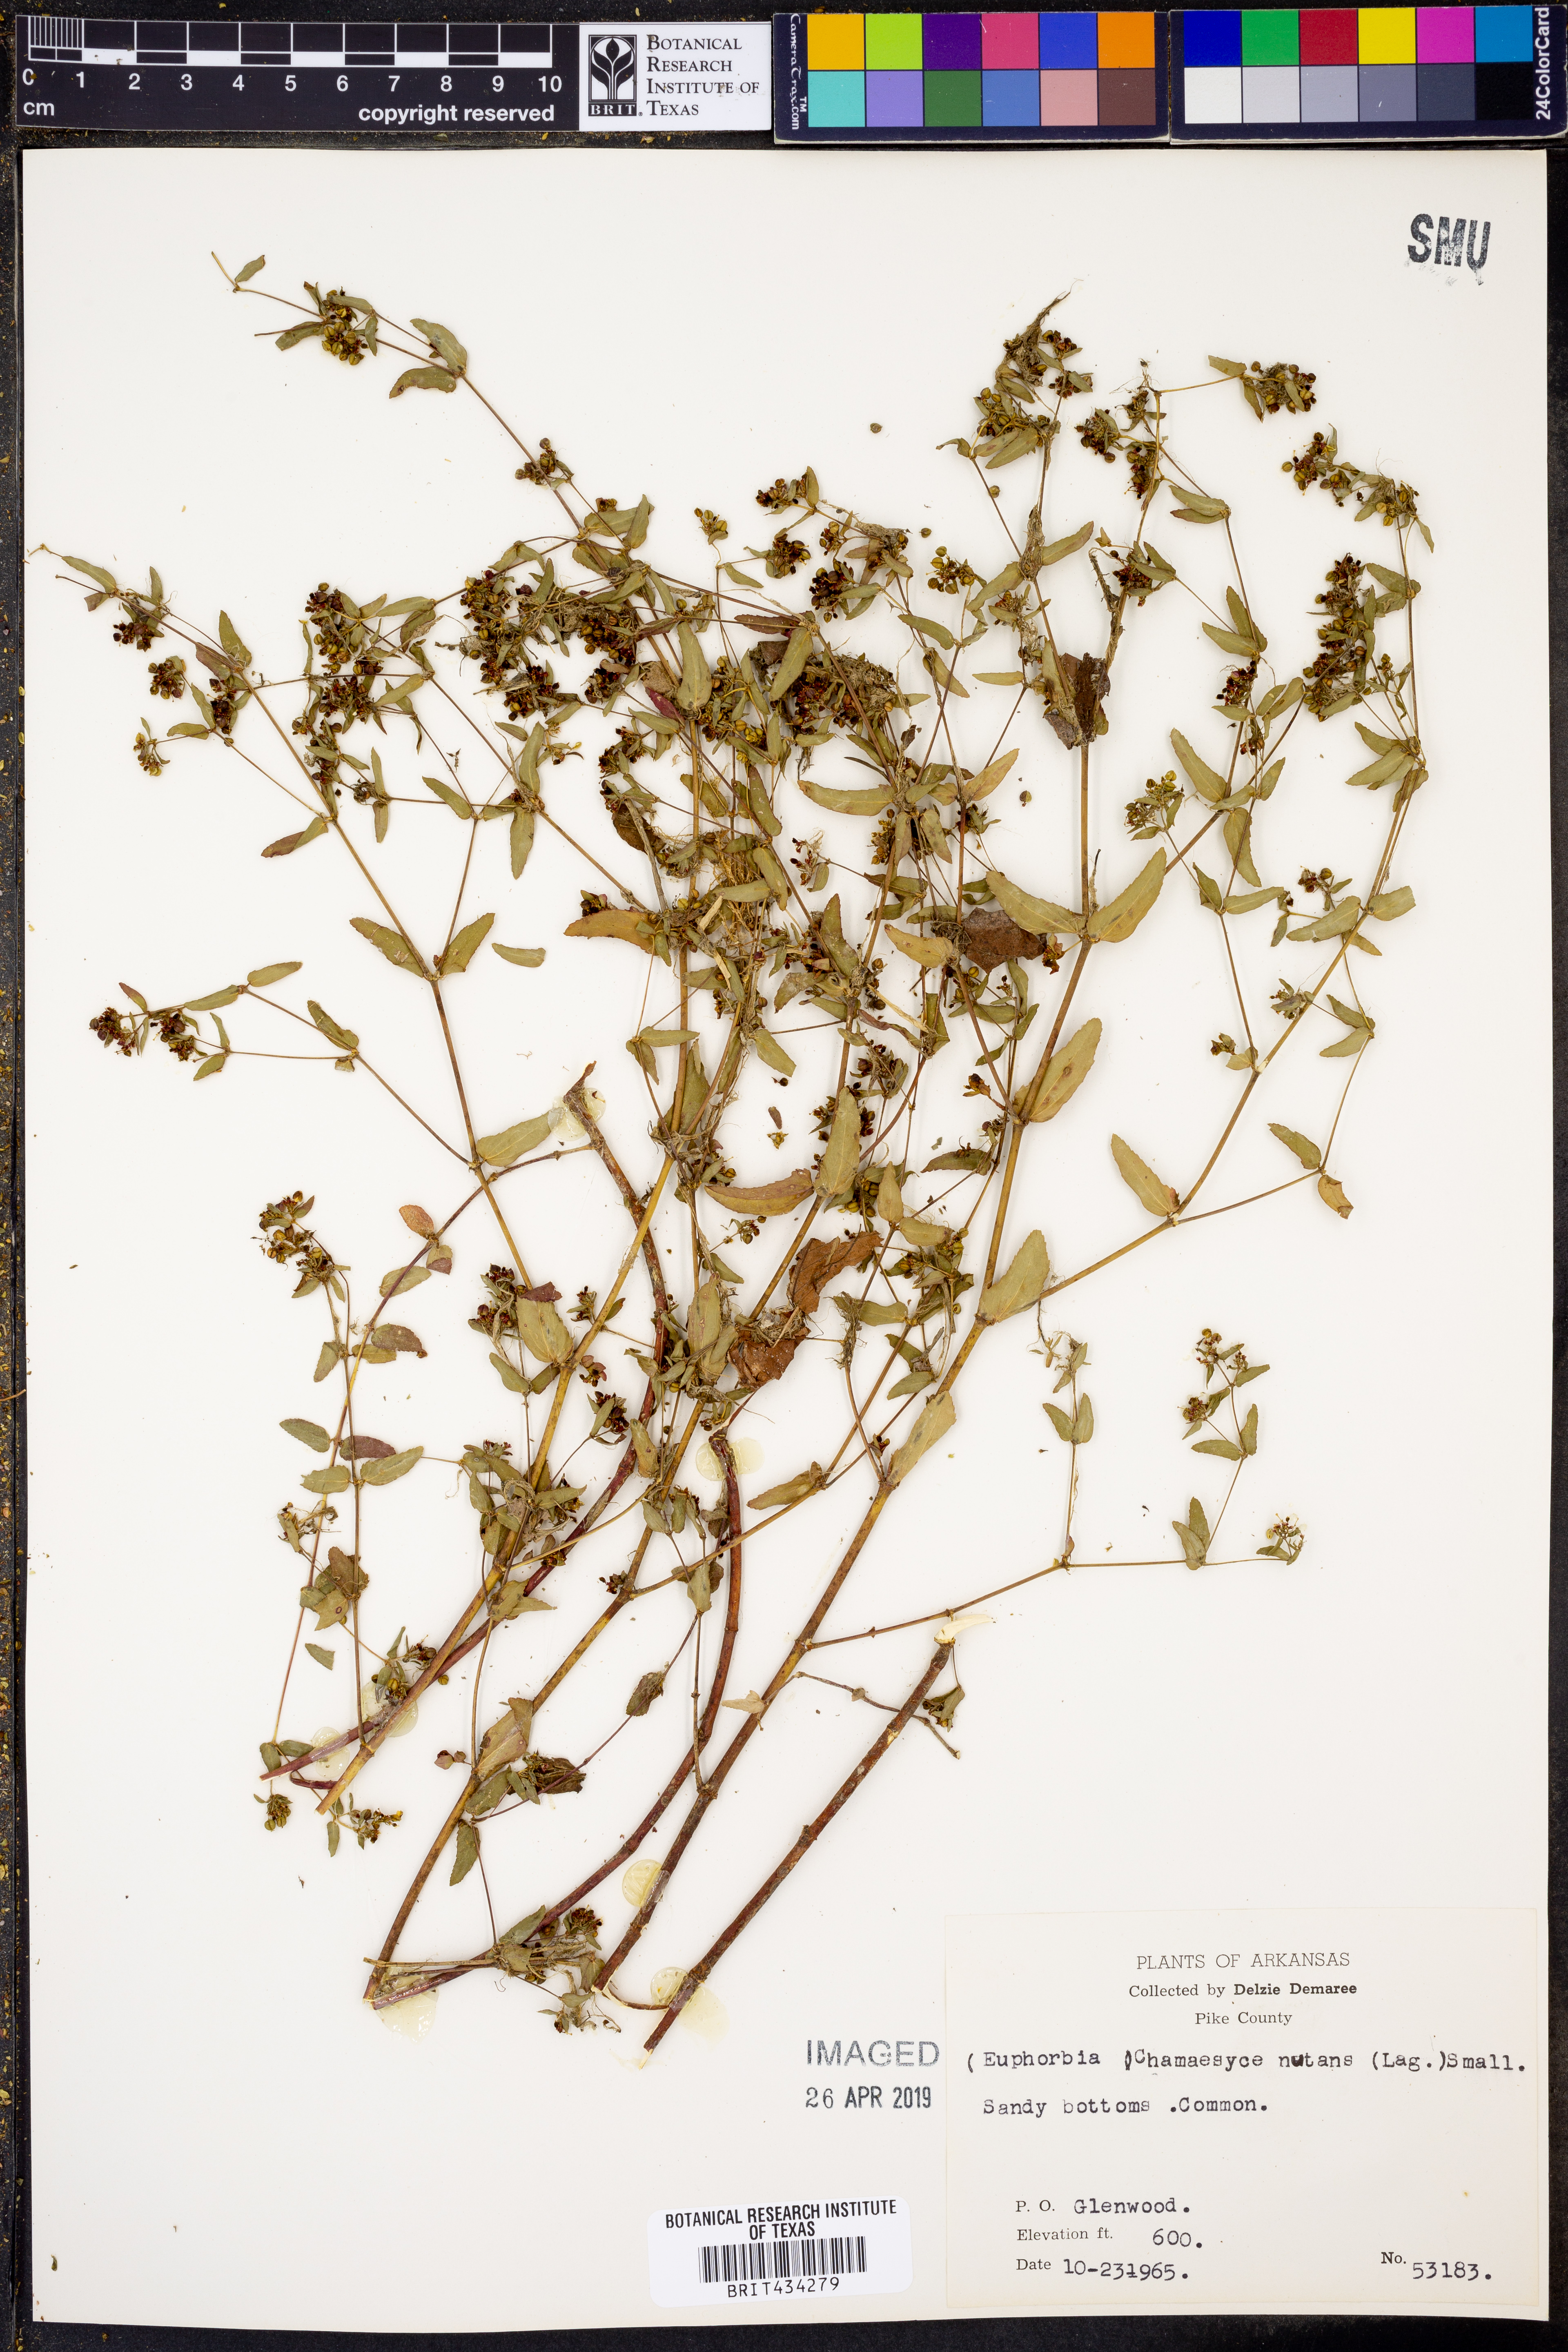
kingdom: Plantae
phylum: Tracheophyta
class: Magnoliopsida
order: Malpighiales
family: Euphorbiaceae
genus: Euphorbia
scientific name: Euphorbia nutans
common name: Eyebane
